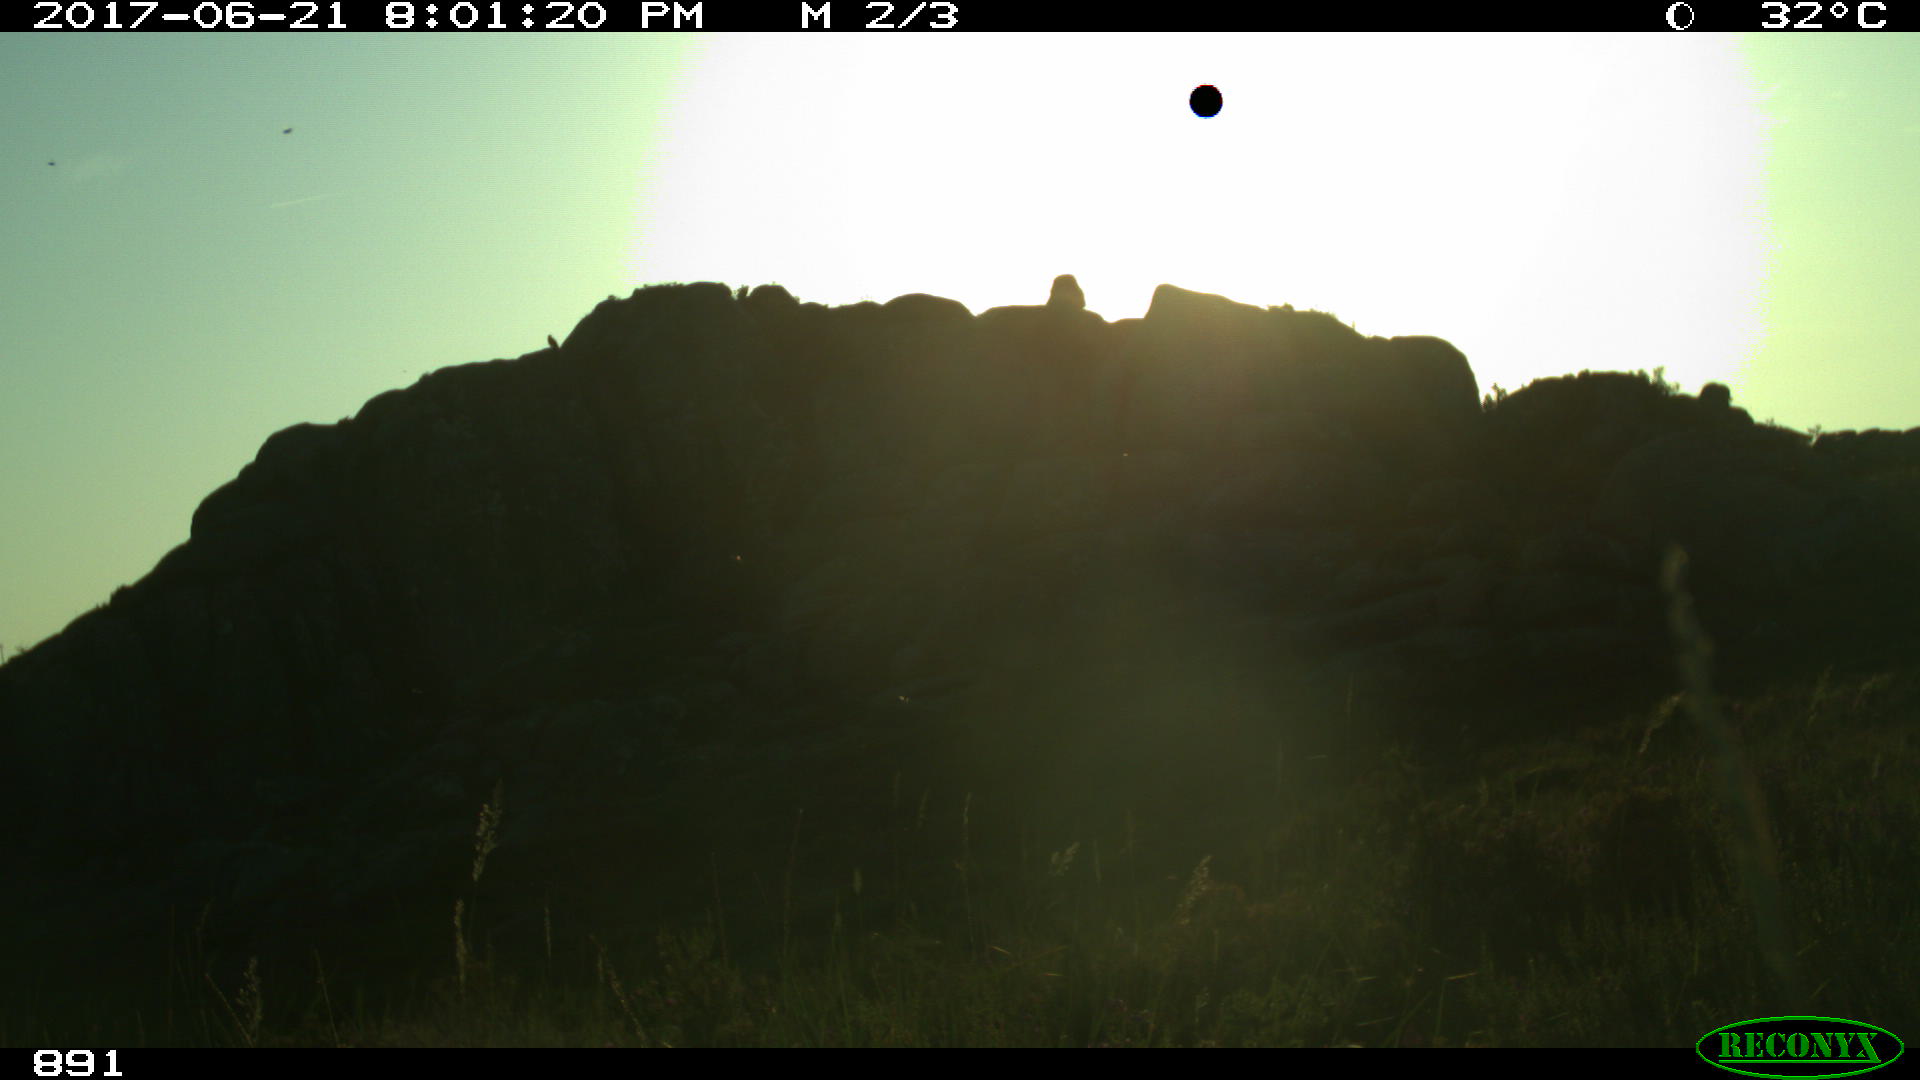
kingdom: Animalia
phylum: Chordata
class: Mammalia
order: Perissodactyla
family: Equidae
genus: Equus
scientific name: Equus caballus
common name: Horse
